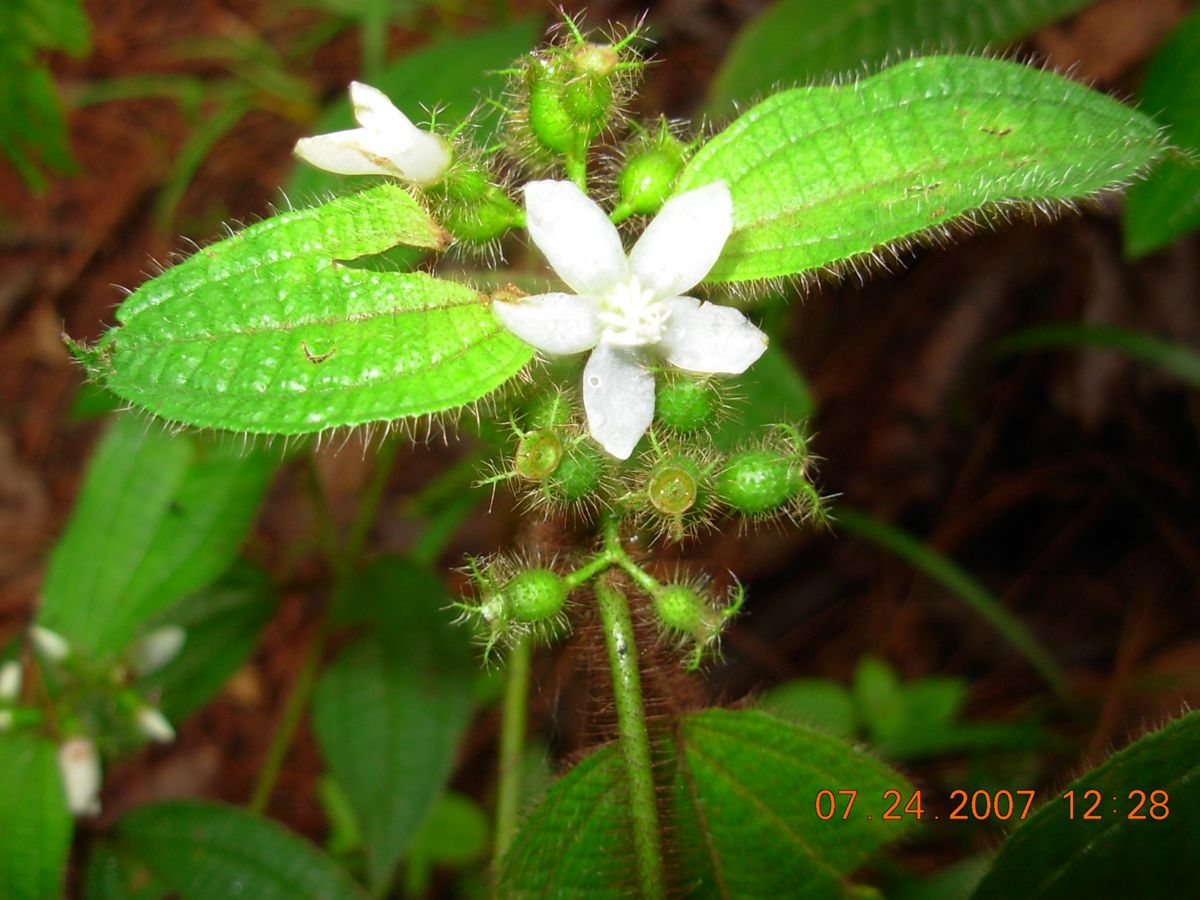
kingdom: Plantae
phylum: Tracheophyta
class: Magnoliopsida
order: Myrtales
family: Melastomataceae
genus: Miconia
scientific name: Miconia
